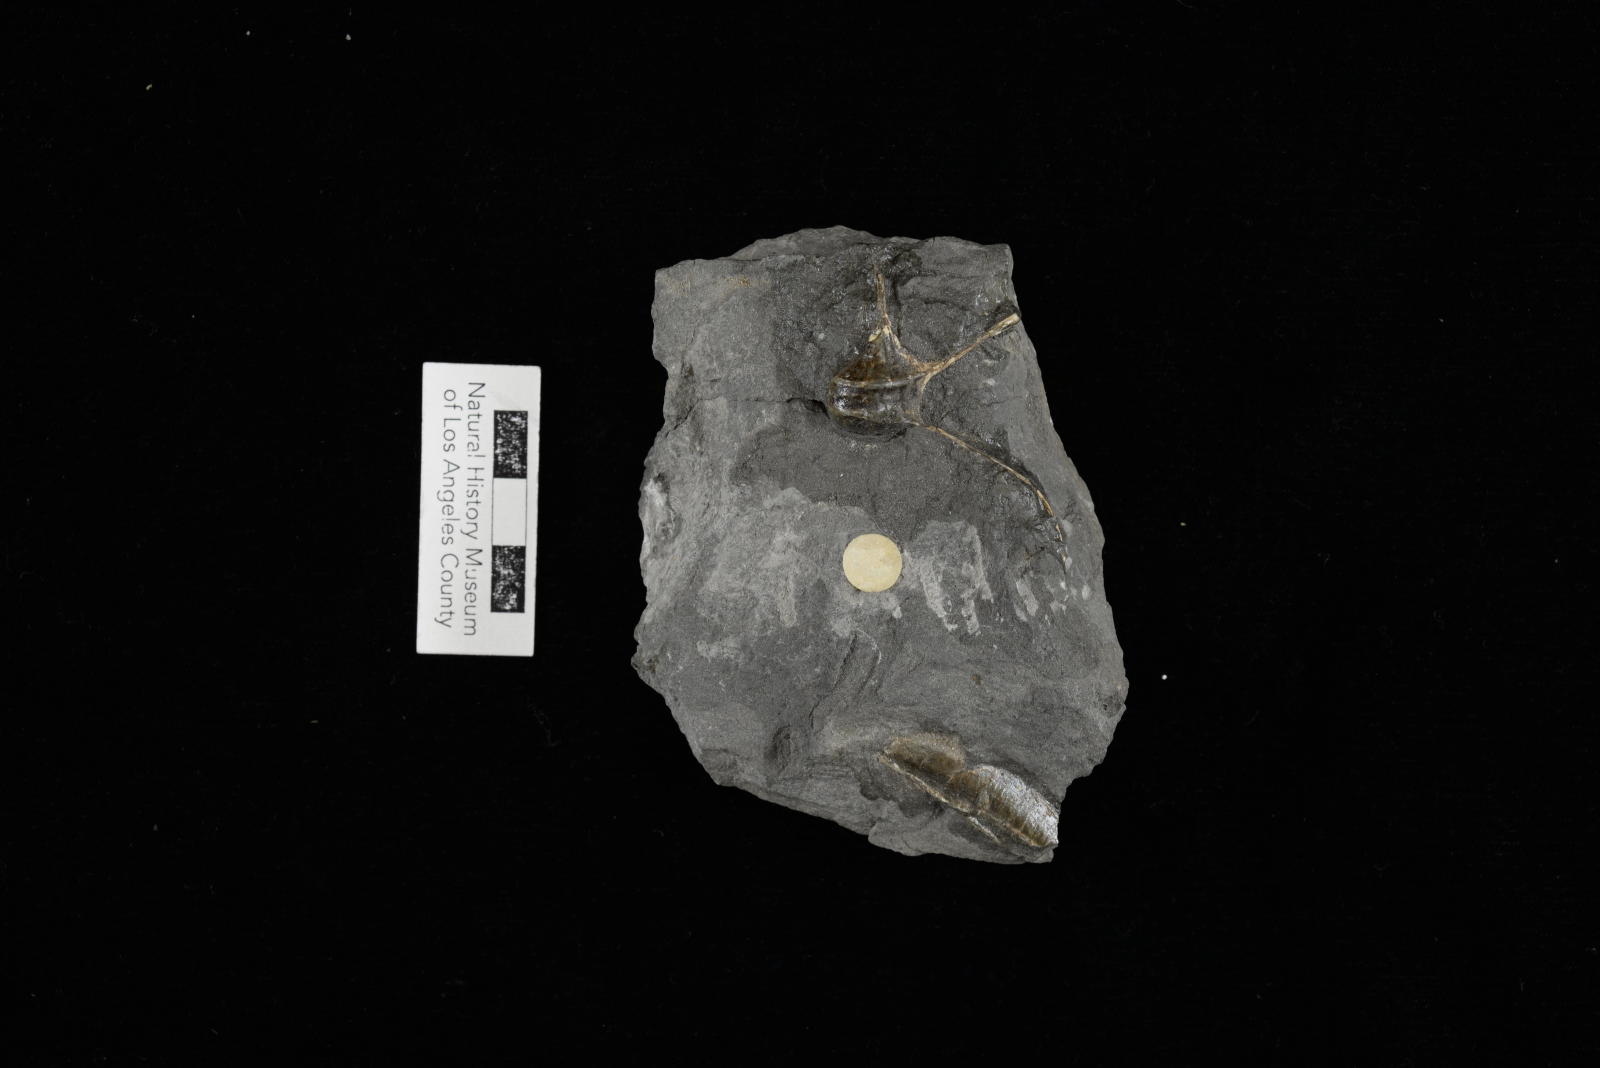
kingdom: Animalia
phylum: Mollusca
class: Gastropoda
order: Littorinimorpha
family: Aporrhaidae
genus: Tessarolax
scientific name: Tessarolax alaskana
